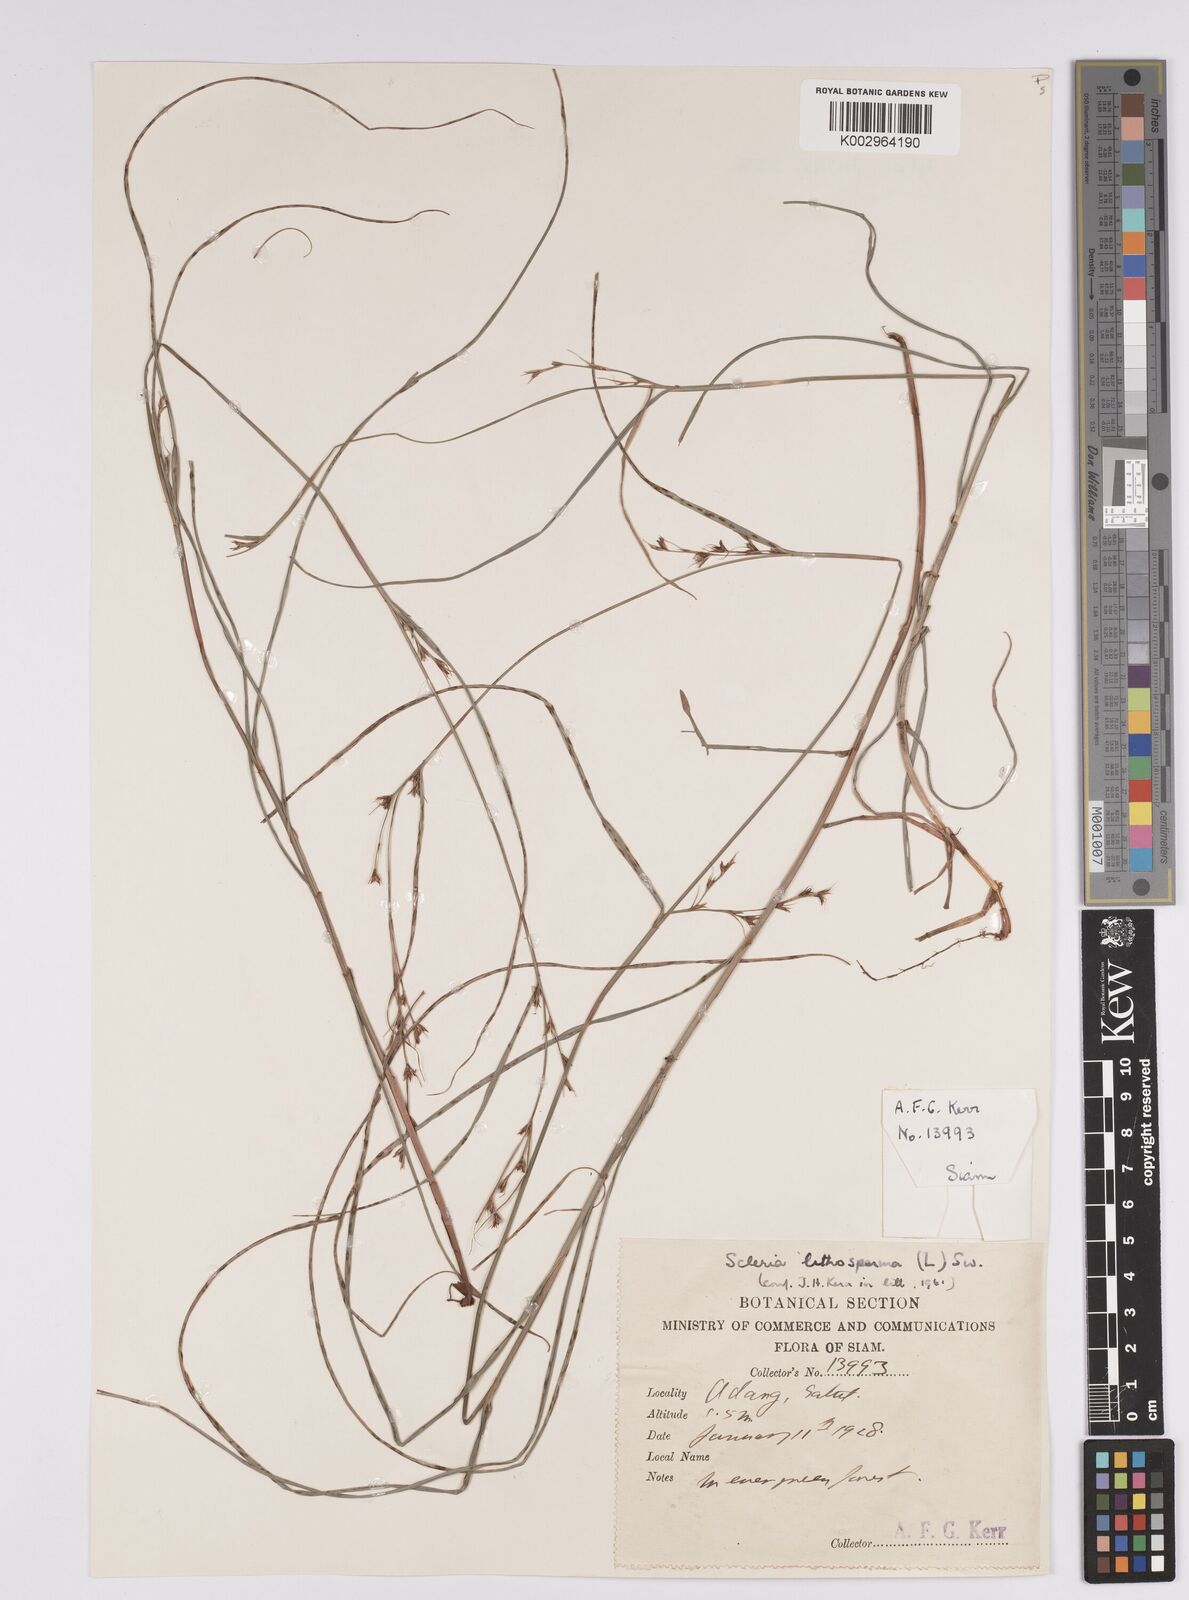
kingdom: Plantae
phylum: Tracheophyta
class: Liliopsida
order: Poales
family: Cyperaceae
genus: Scleria
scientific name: Scleria lithosperma
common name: Florida keys nut-rush
